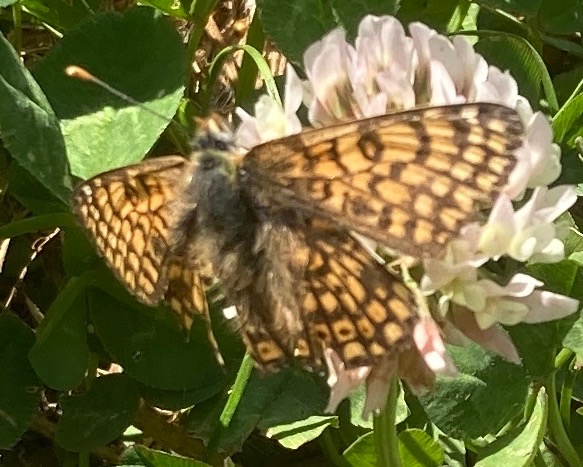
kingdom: Animalia
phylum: Arthropoda
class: Insecta
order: Lepidoptera
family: Nymphalidae
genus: Melitaea
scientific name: Melitaea cinxia
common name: Okkergul pletvinge
